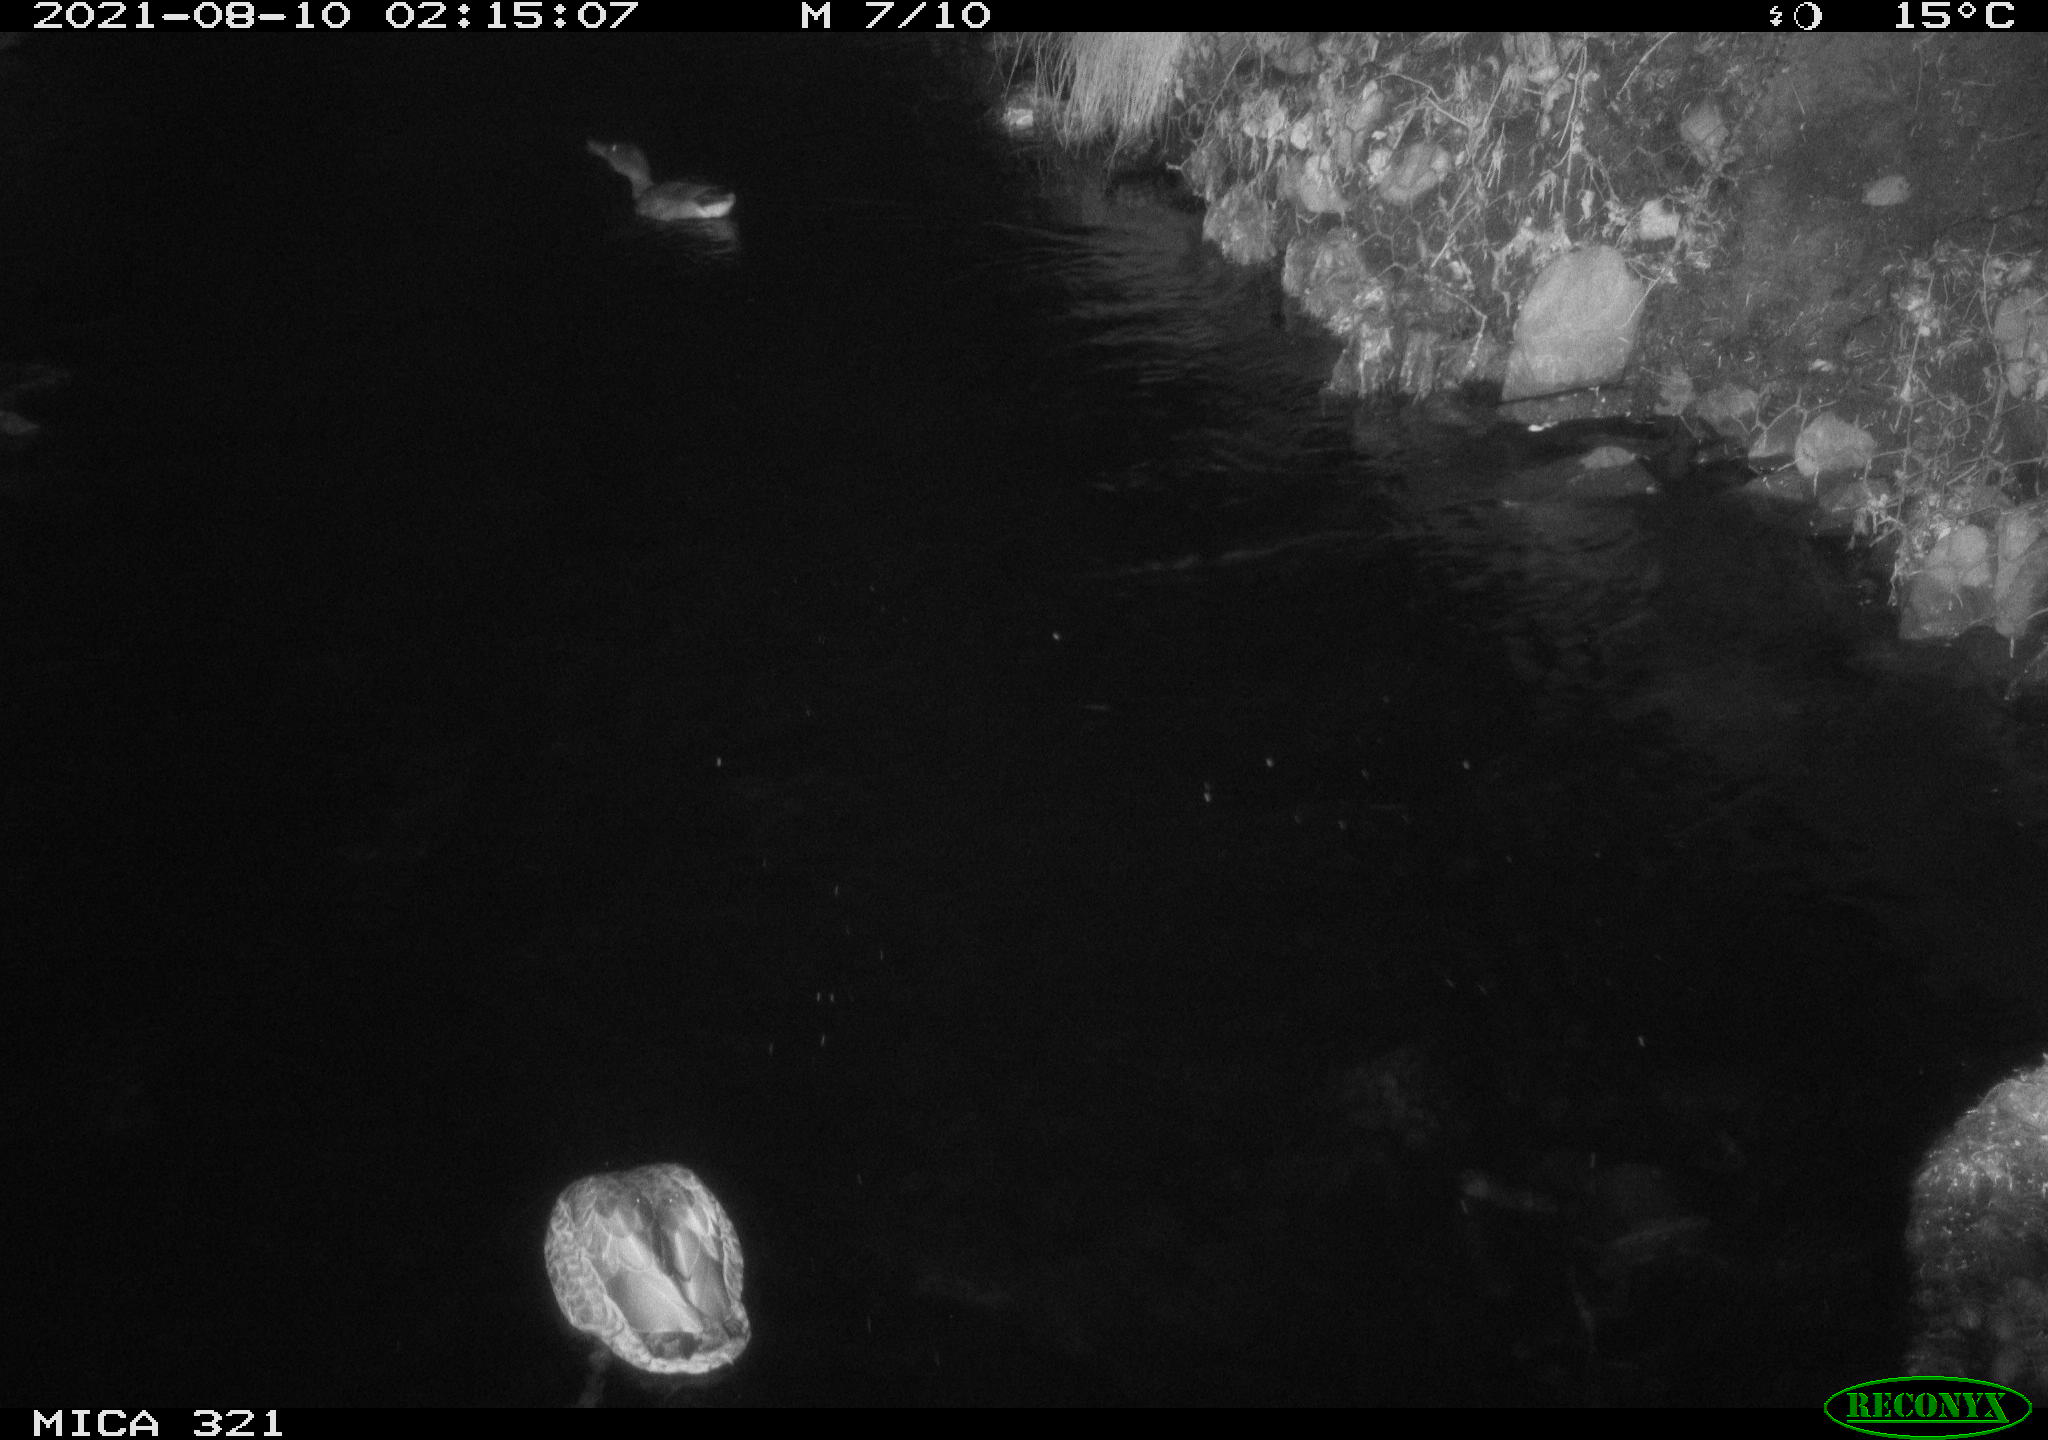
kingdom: Animalia
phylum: Chordata
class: Aves
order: Anseriformes
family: Anatidae
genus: Anas
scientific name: Anas platyrhynchos
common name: Mallard
